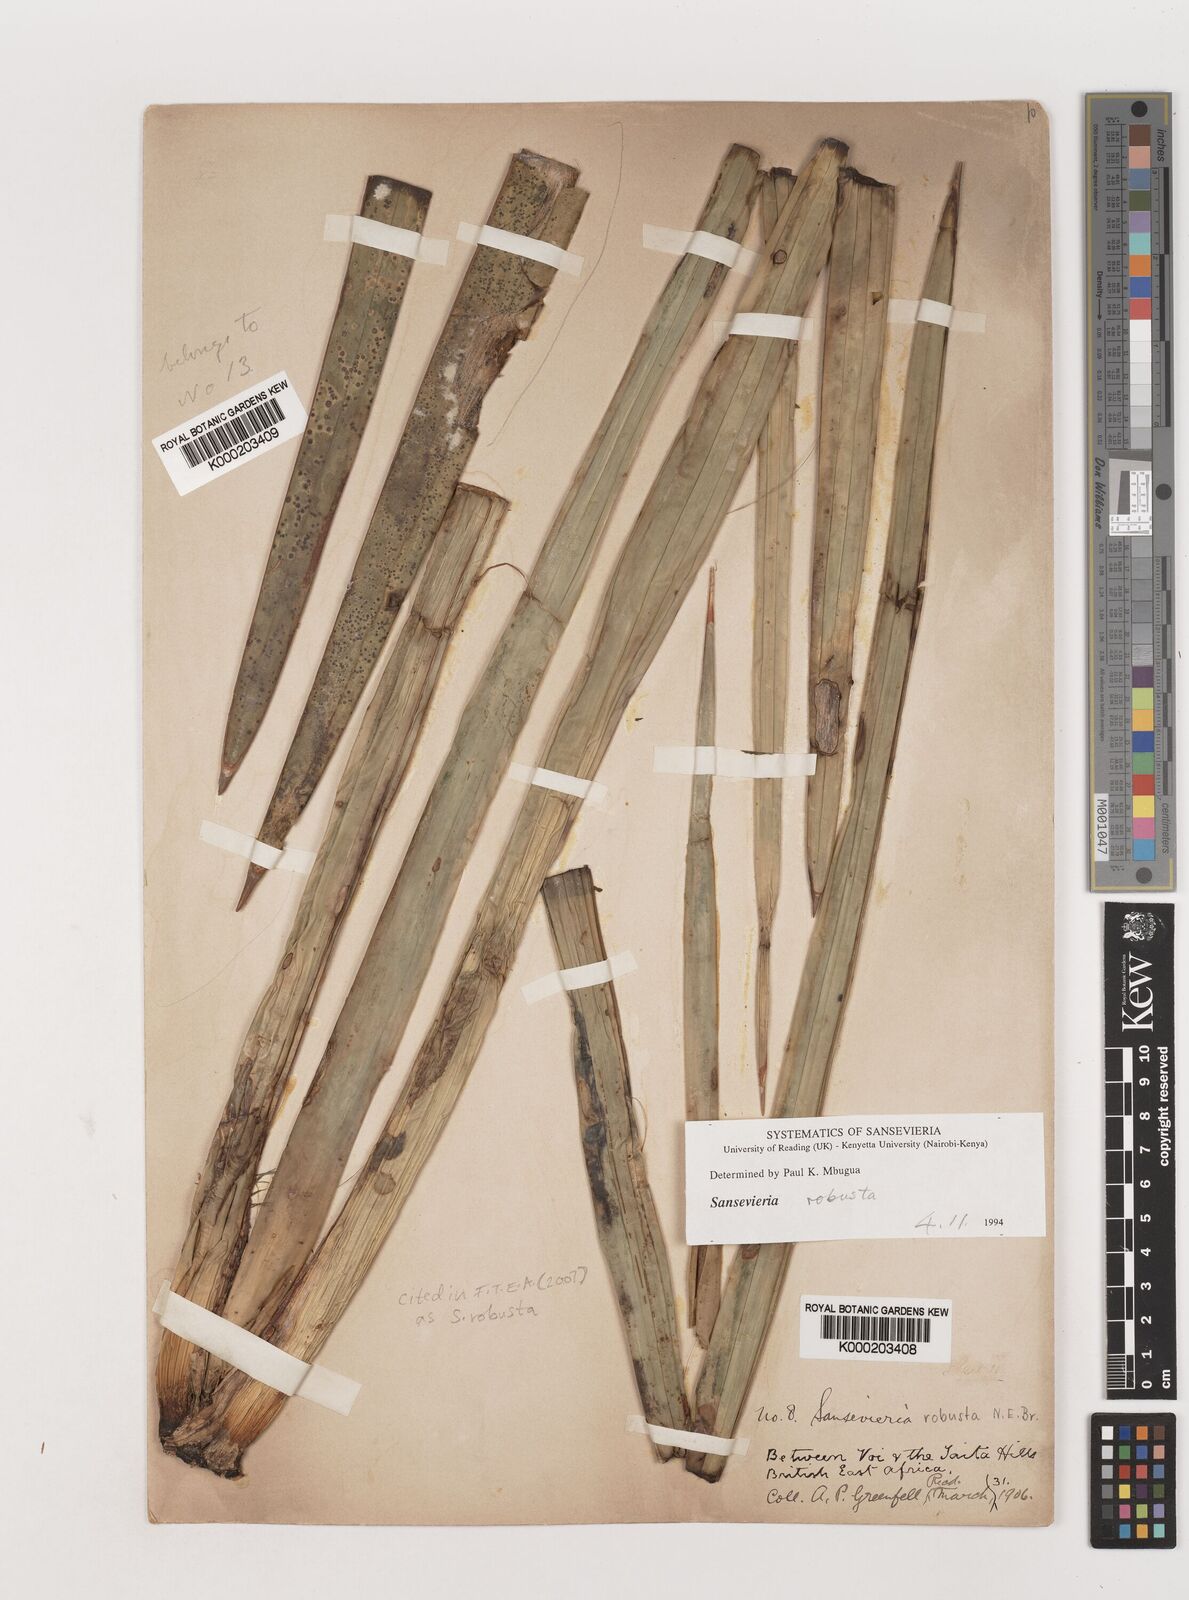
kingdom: Plantae
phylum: Tracheophyta
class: Liliopsida
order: Asparagales
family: Asparagaceae
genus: Dracaena
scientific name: Dracaena perrotii
